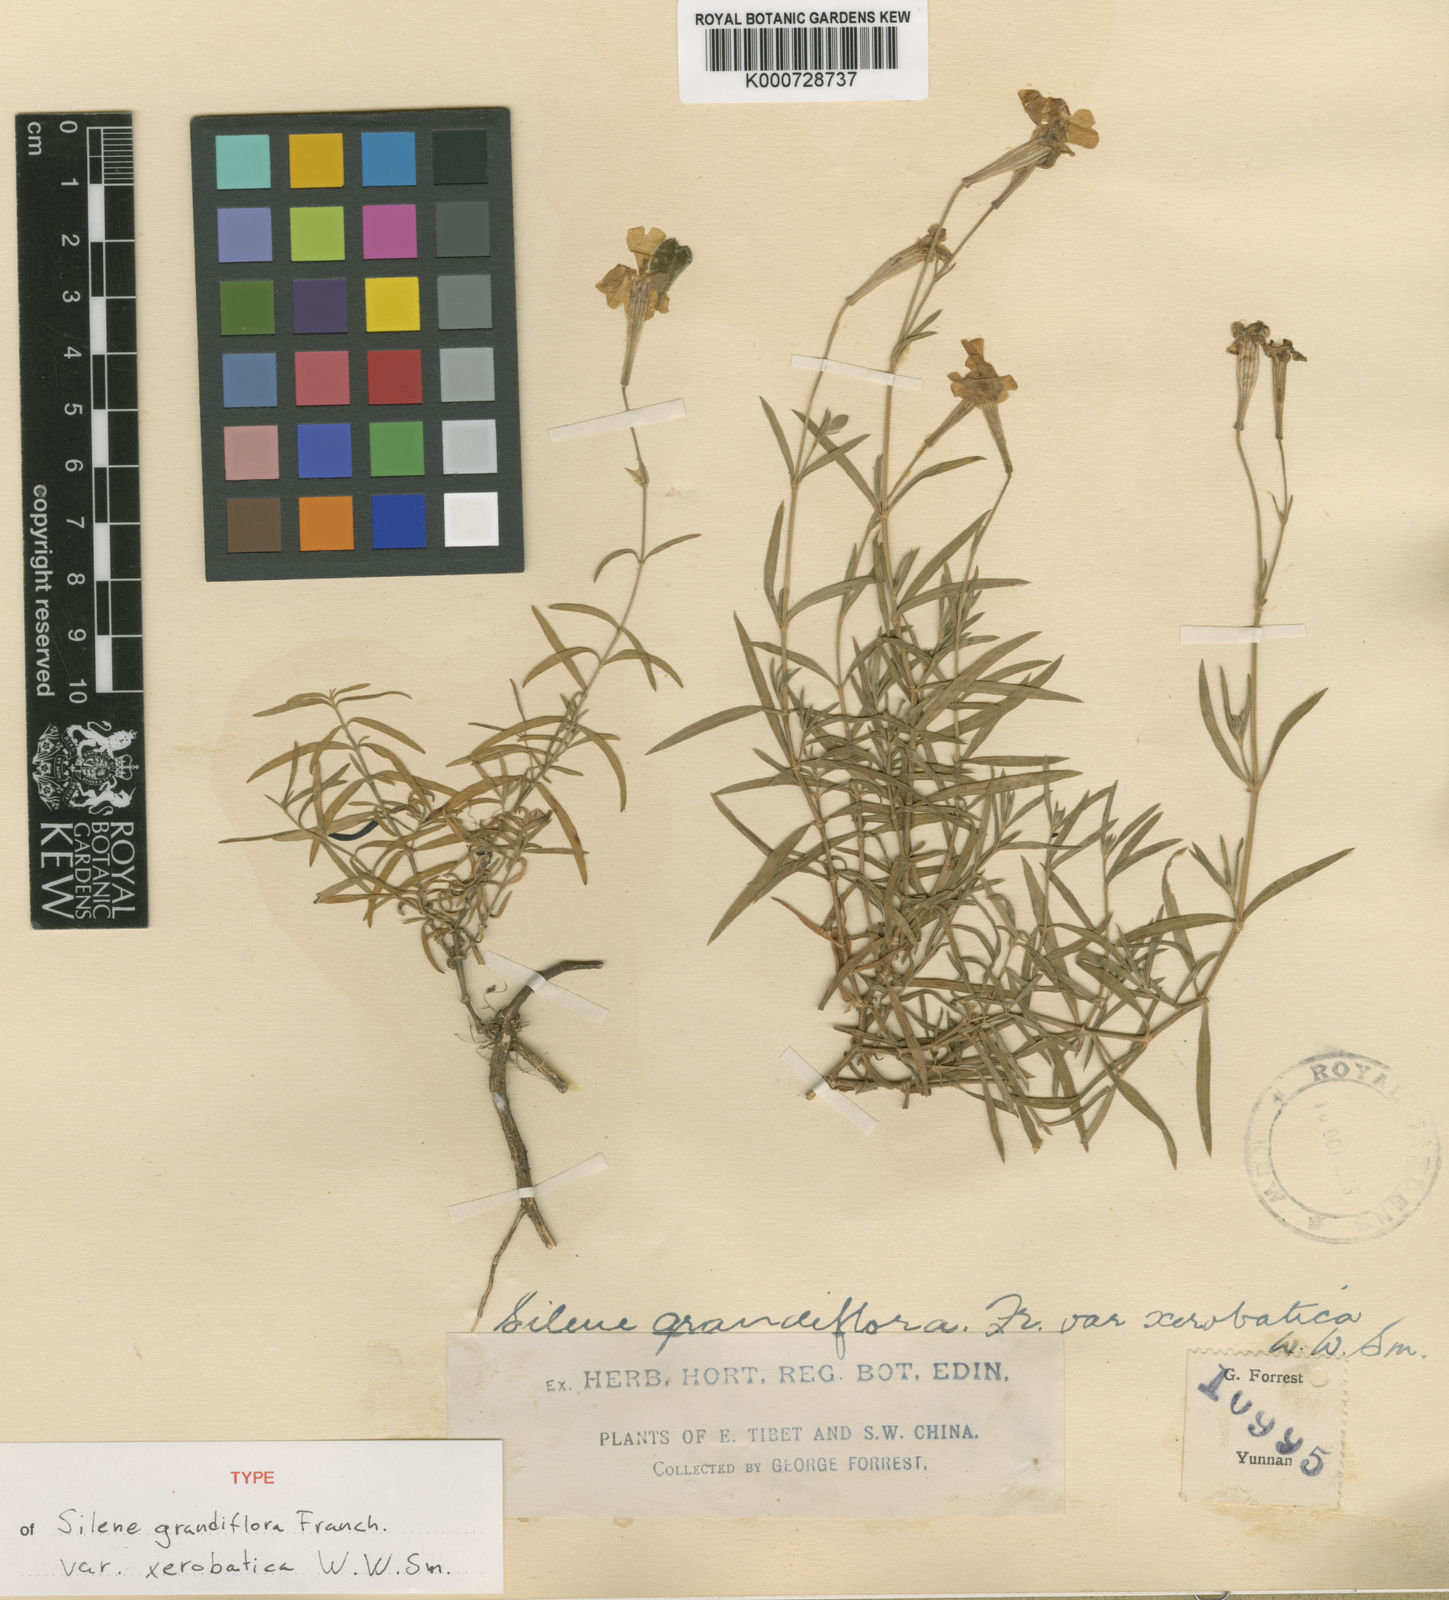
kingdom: Plantae
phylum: Tracheophyta
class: Magnoliopsida
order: Caryophyllales
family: Caryophyllaceae
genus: Silene
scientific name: Silene grandiflora
